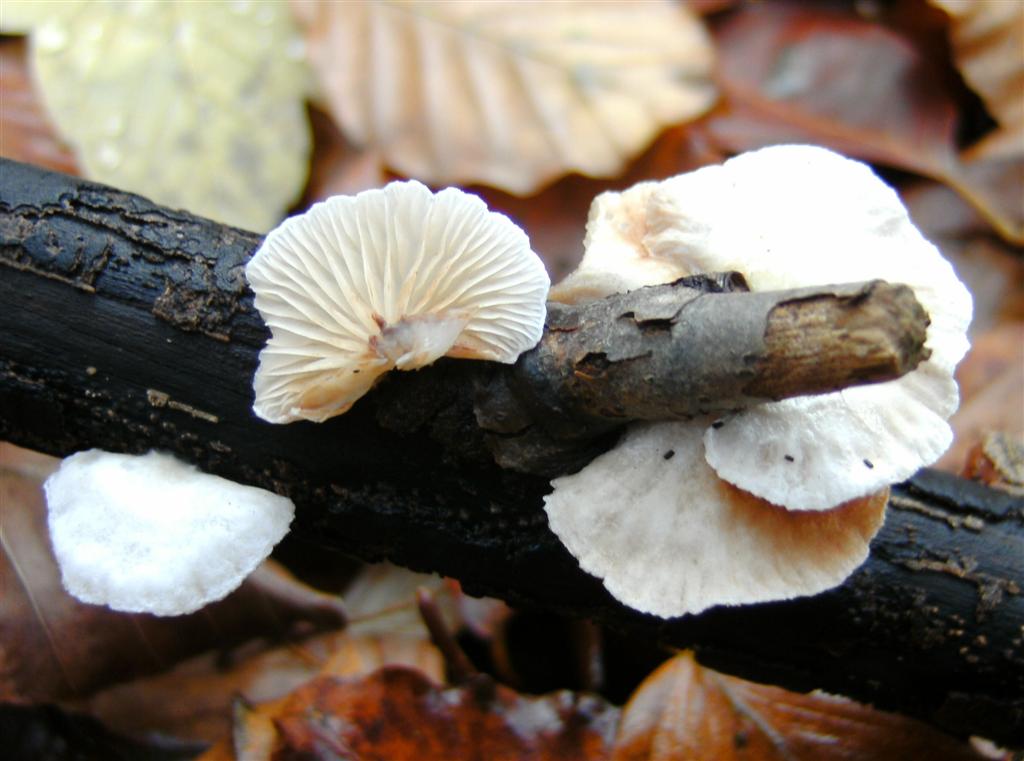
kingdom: Fungi
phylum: Basidiomycota
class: Agaricomycetes
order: Agaricales
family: Crepidotaceae
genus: Crepidotus
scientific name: Crepidotus cesatii
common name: almindelig muslingesvamp
